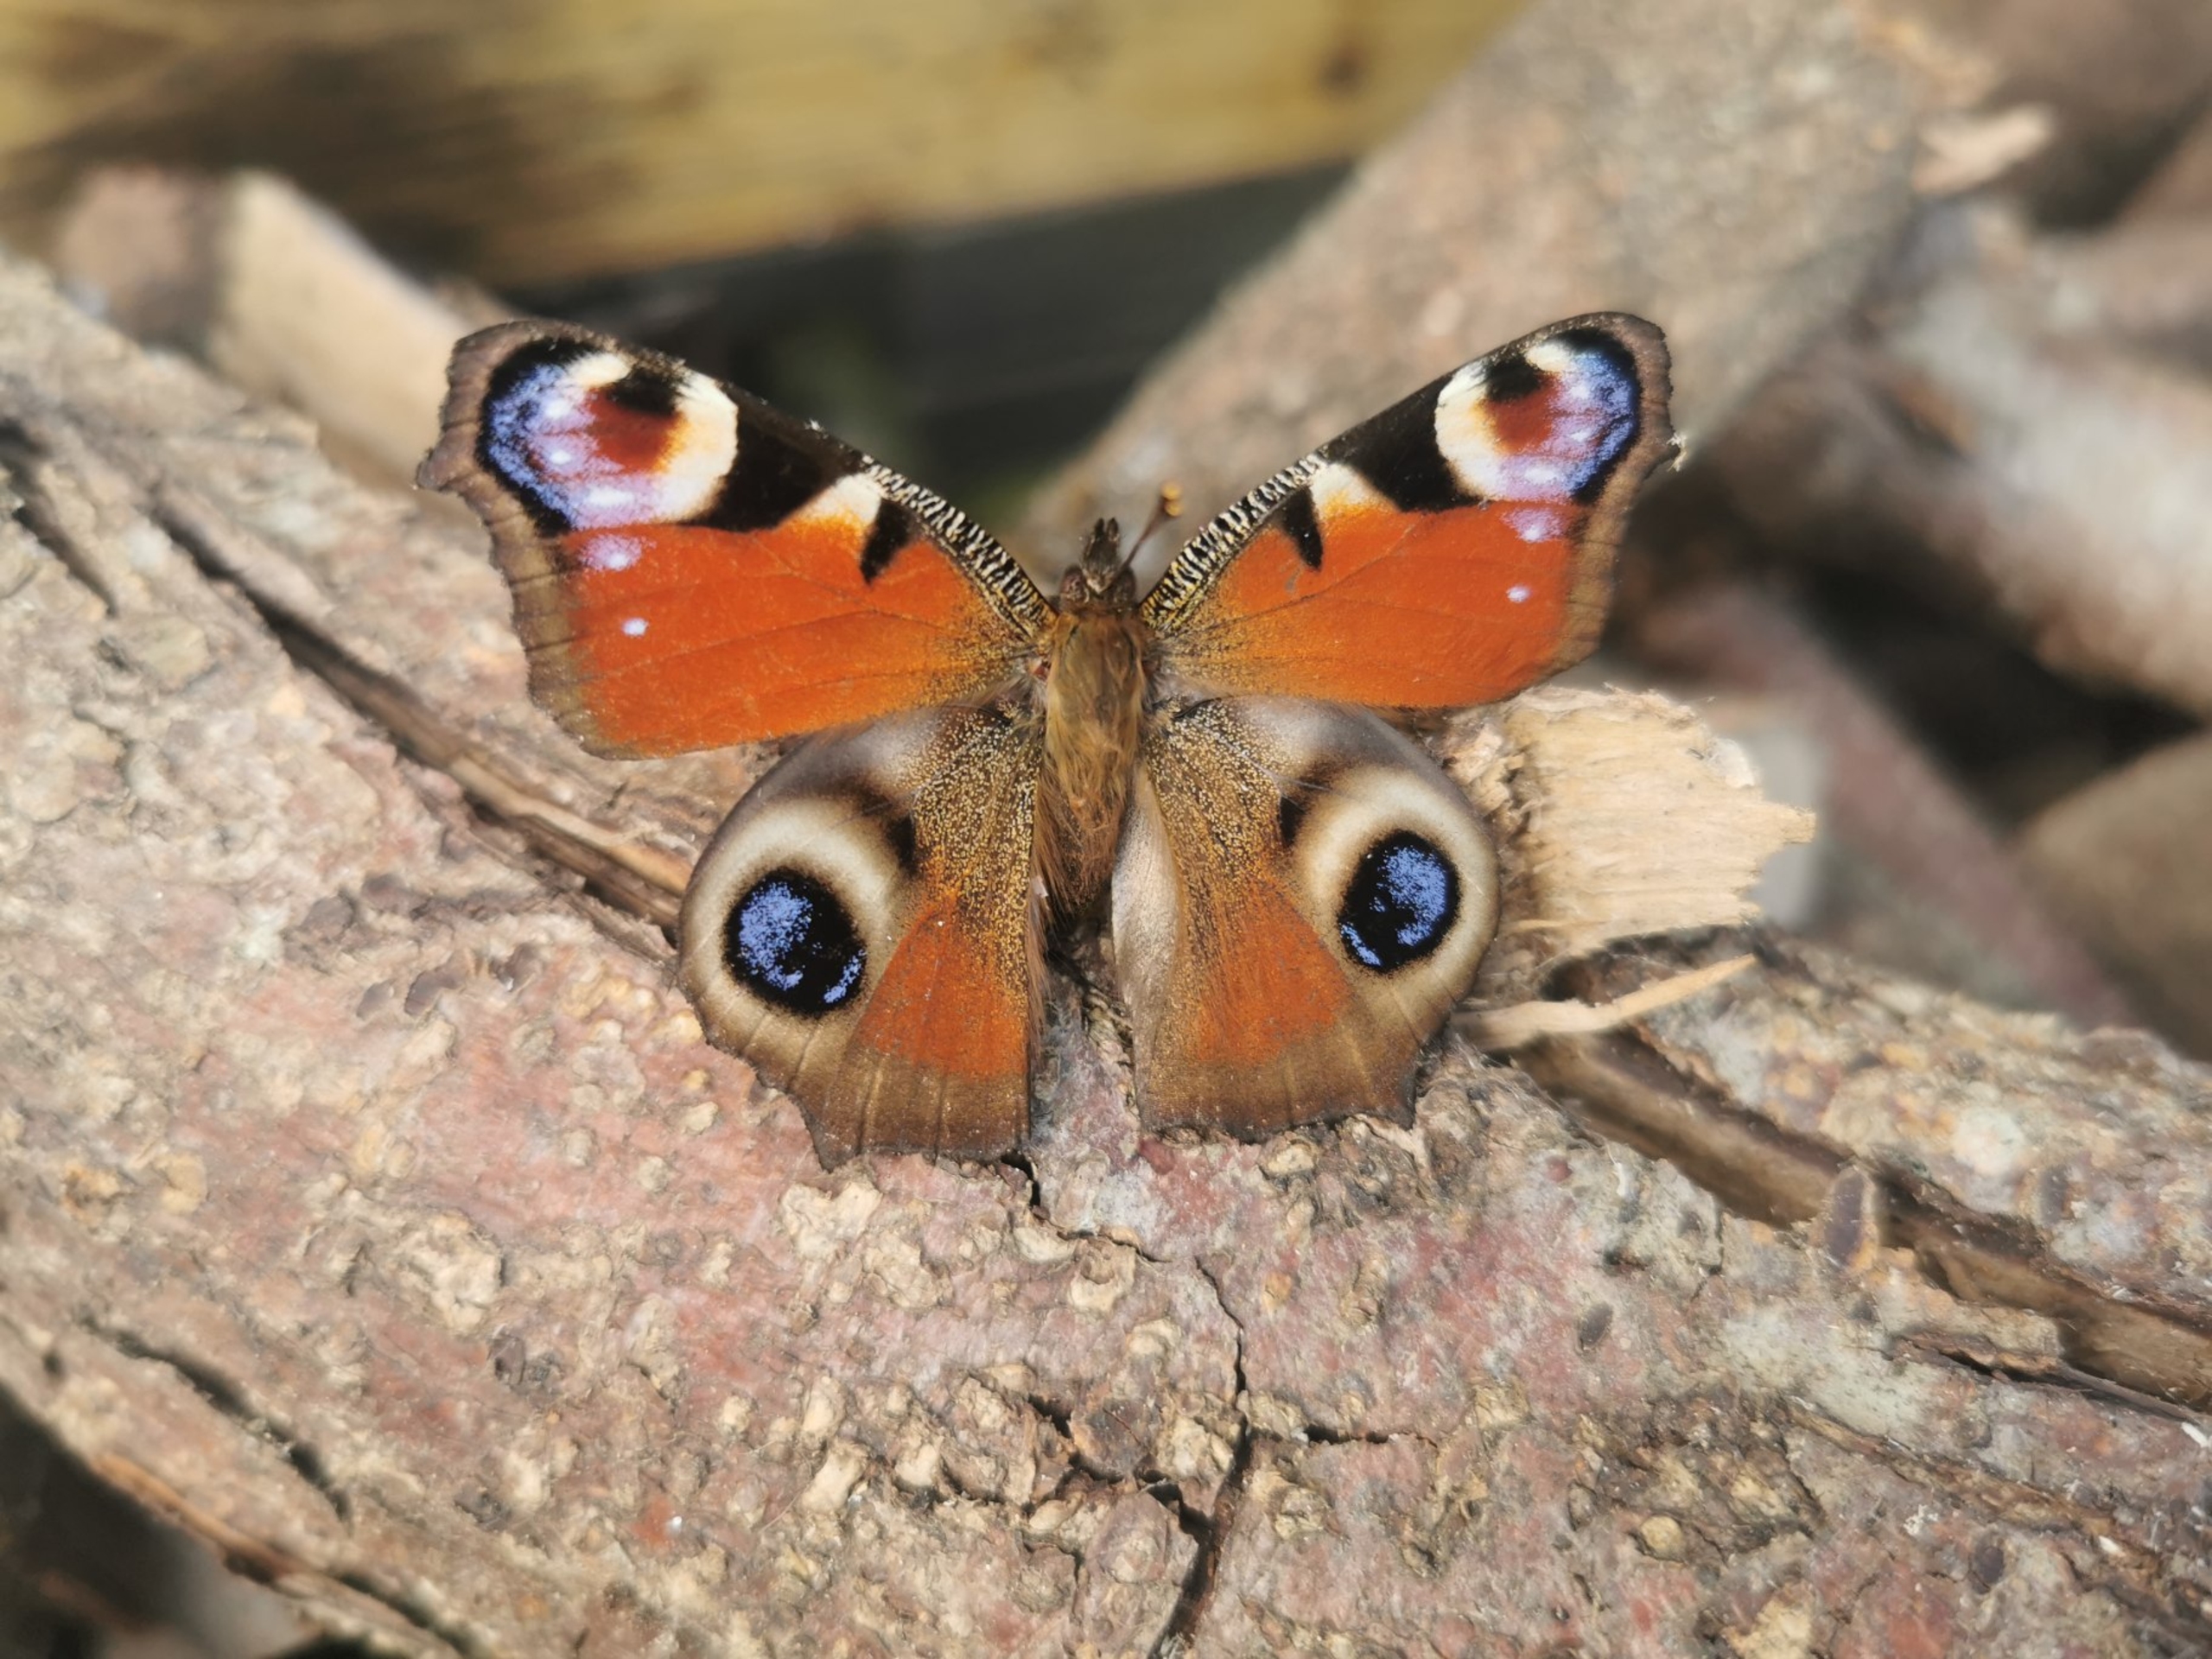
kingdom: Animalia
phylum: Arthropoda
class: Insecta
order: Lepidoptera
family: Nymphalidae
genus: Aglais
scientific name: Aglais io
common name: Dagpåfugleøje
